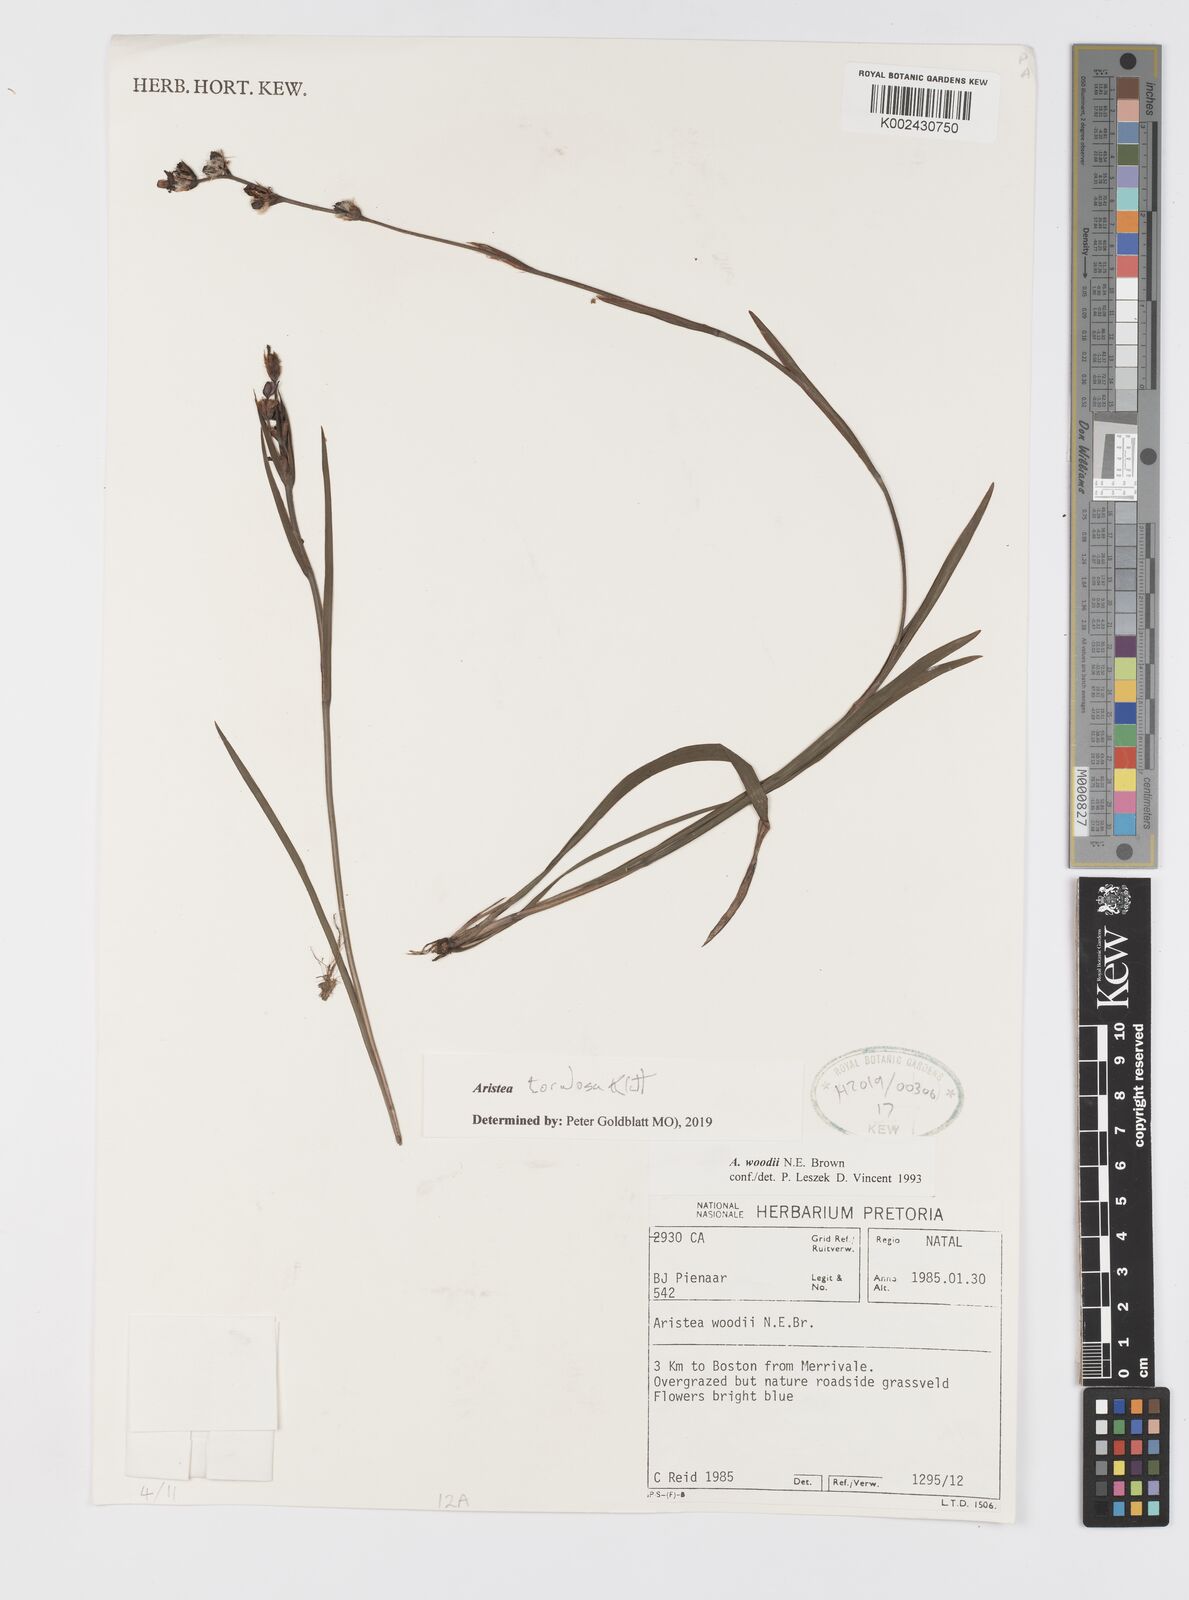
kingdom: Plantae
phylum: Tracheophyta
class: Liliopsida
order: Asparagales
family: Iridaceae
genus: Aristea
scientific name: Aristea torulosa
